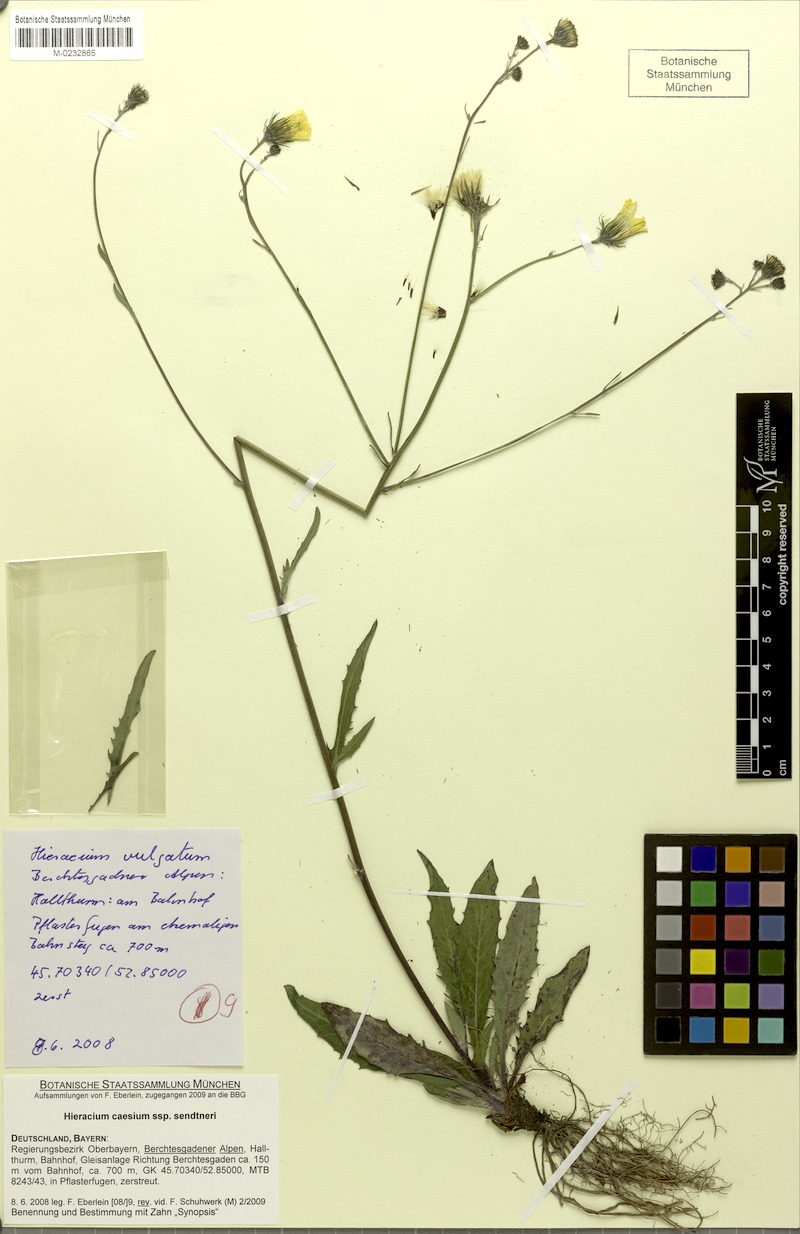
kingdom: Plantae
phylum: Tracheophyta
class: Magnoliopsida
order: Asterales
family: Asteraceae
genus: Hieracium
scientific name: Hieracium caesium
